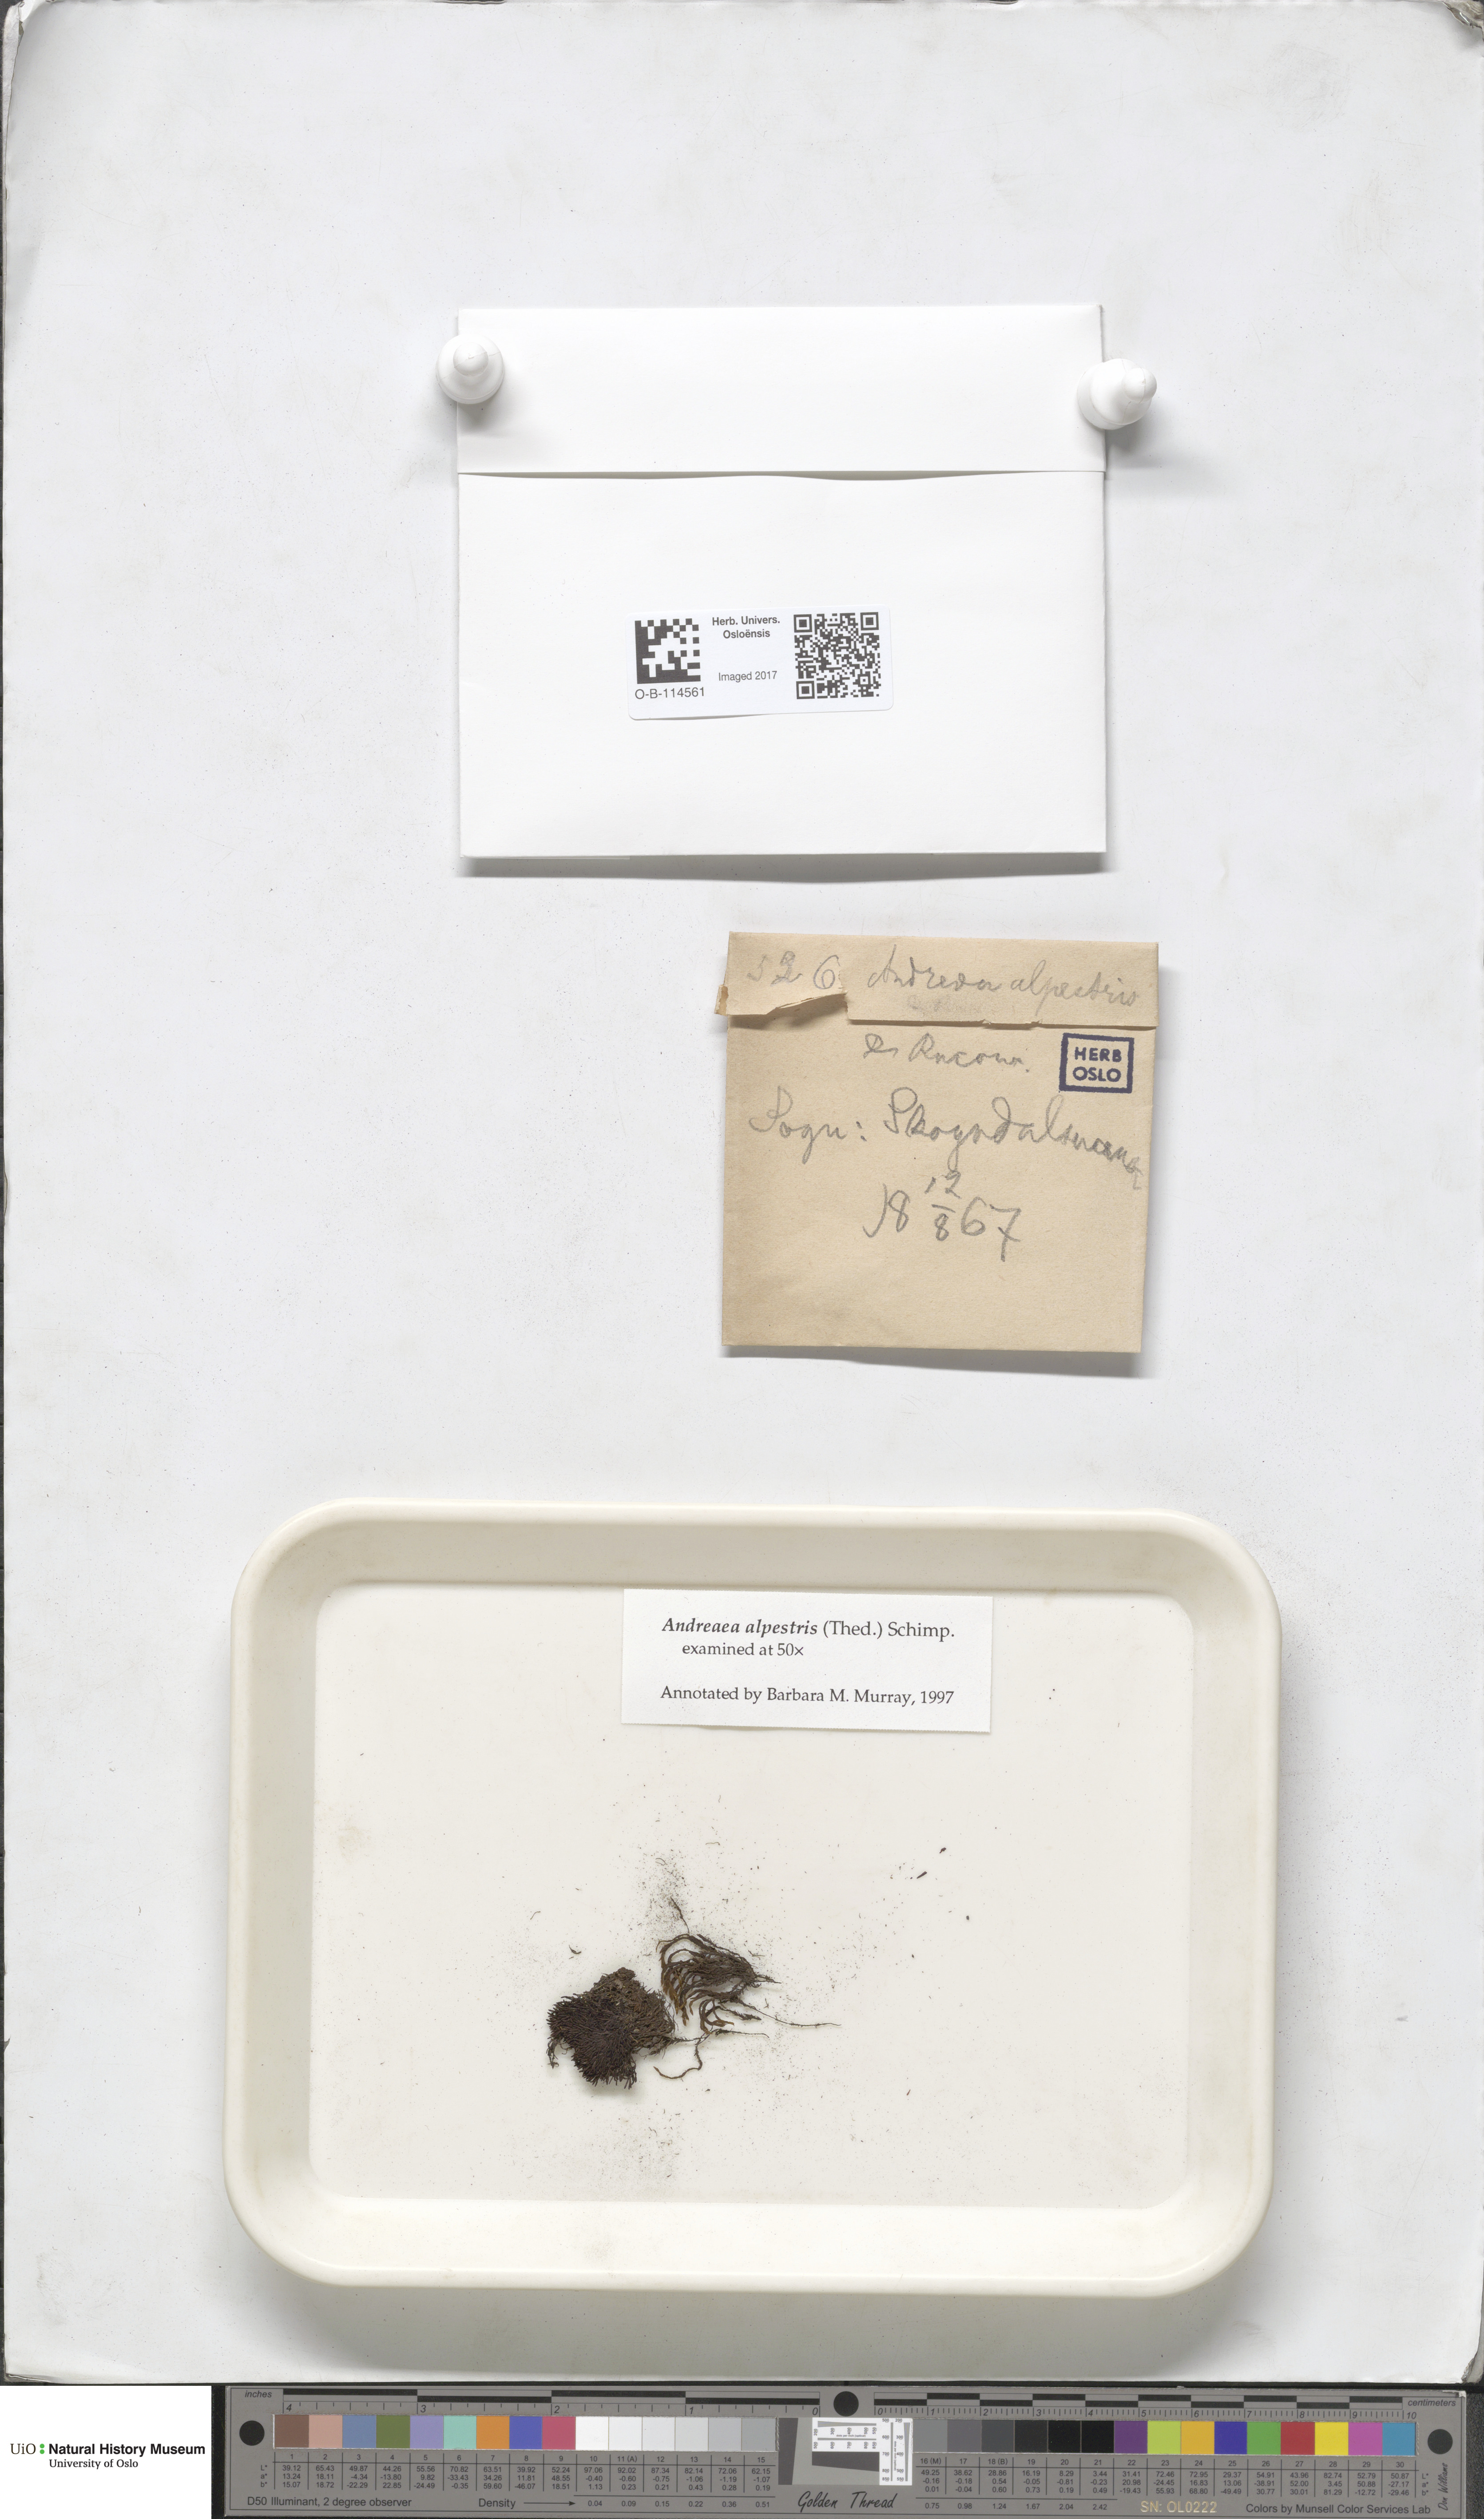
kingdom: Plantae
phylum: Bryophyta
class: Andreaeopsida
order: Andreaeales
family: Andreaeaceae
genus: Andreaea
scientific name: Andreaea alpestris
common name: Slender rock-moss
